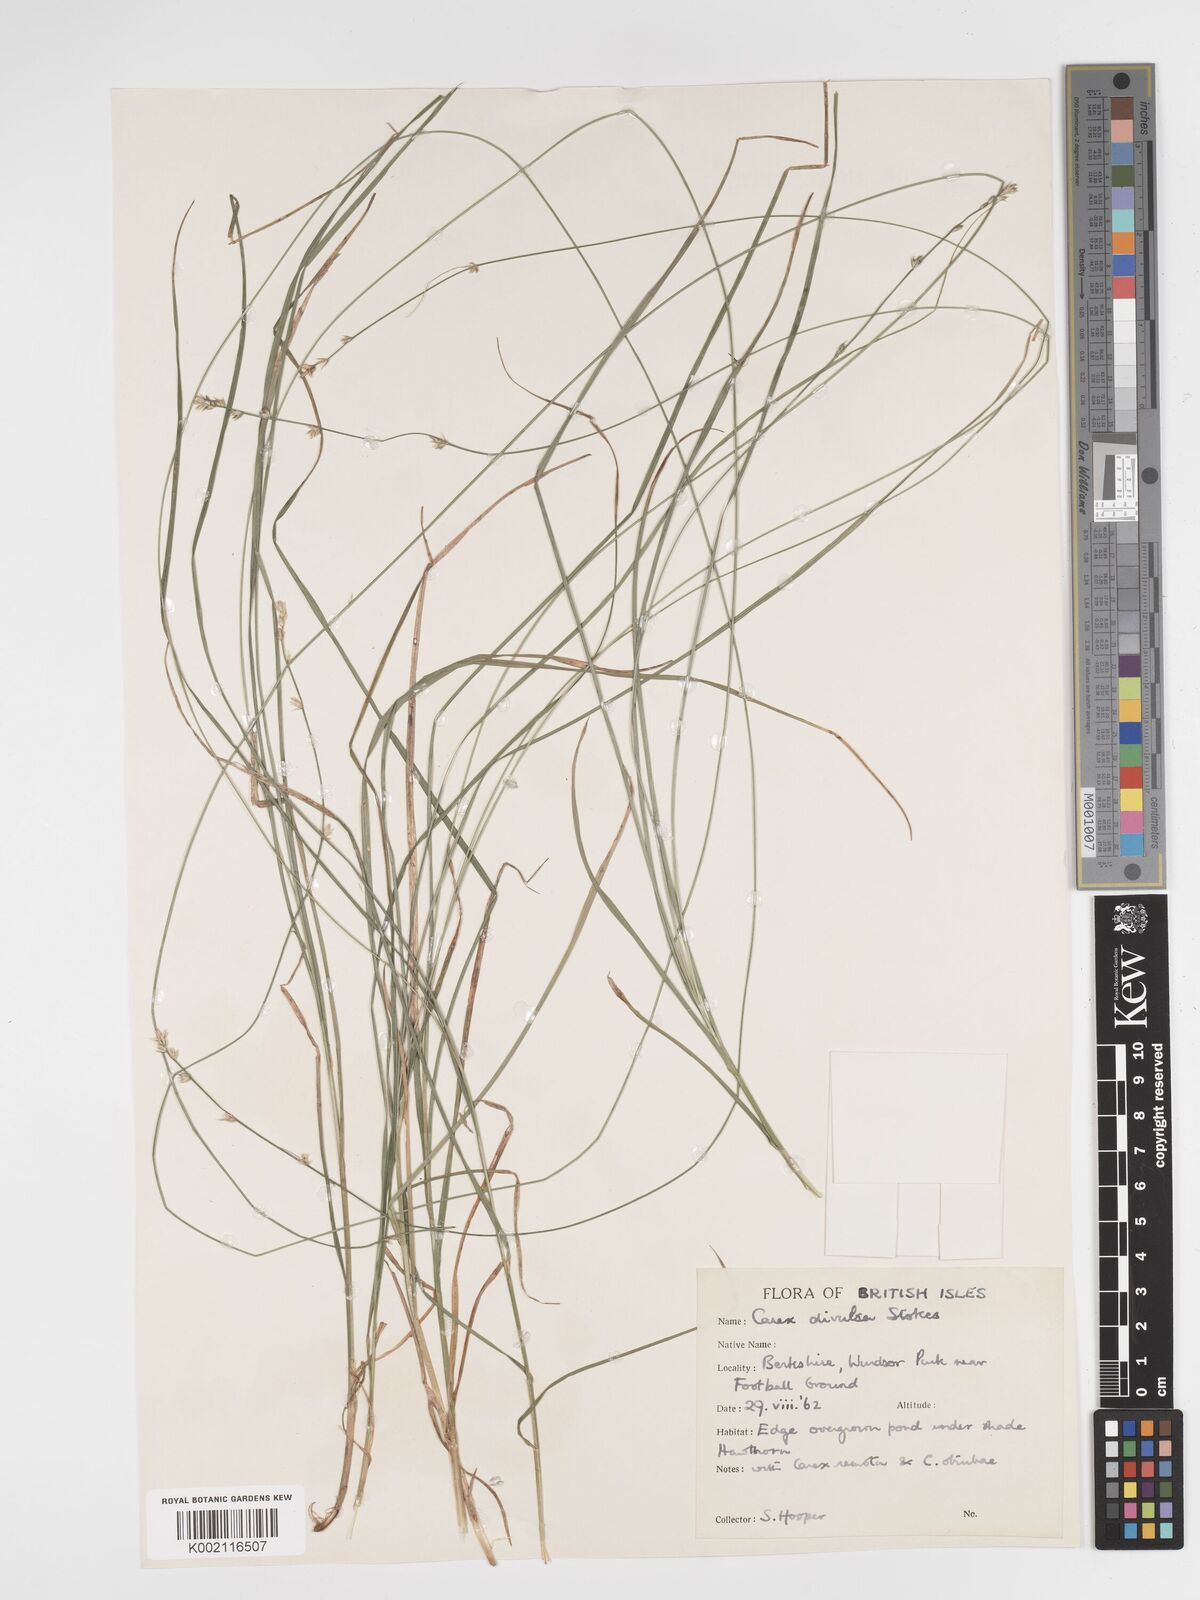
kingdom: Plantae
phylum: Tracheophyta
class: Liliopsida
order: Poales
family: Cyperaceae
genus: Carex
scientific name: Carex divulsa
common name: Grassland sedge
